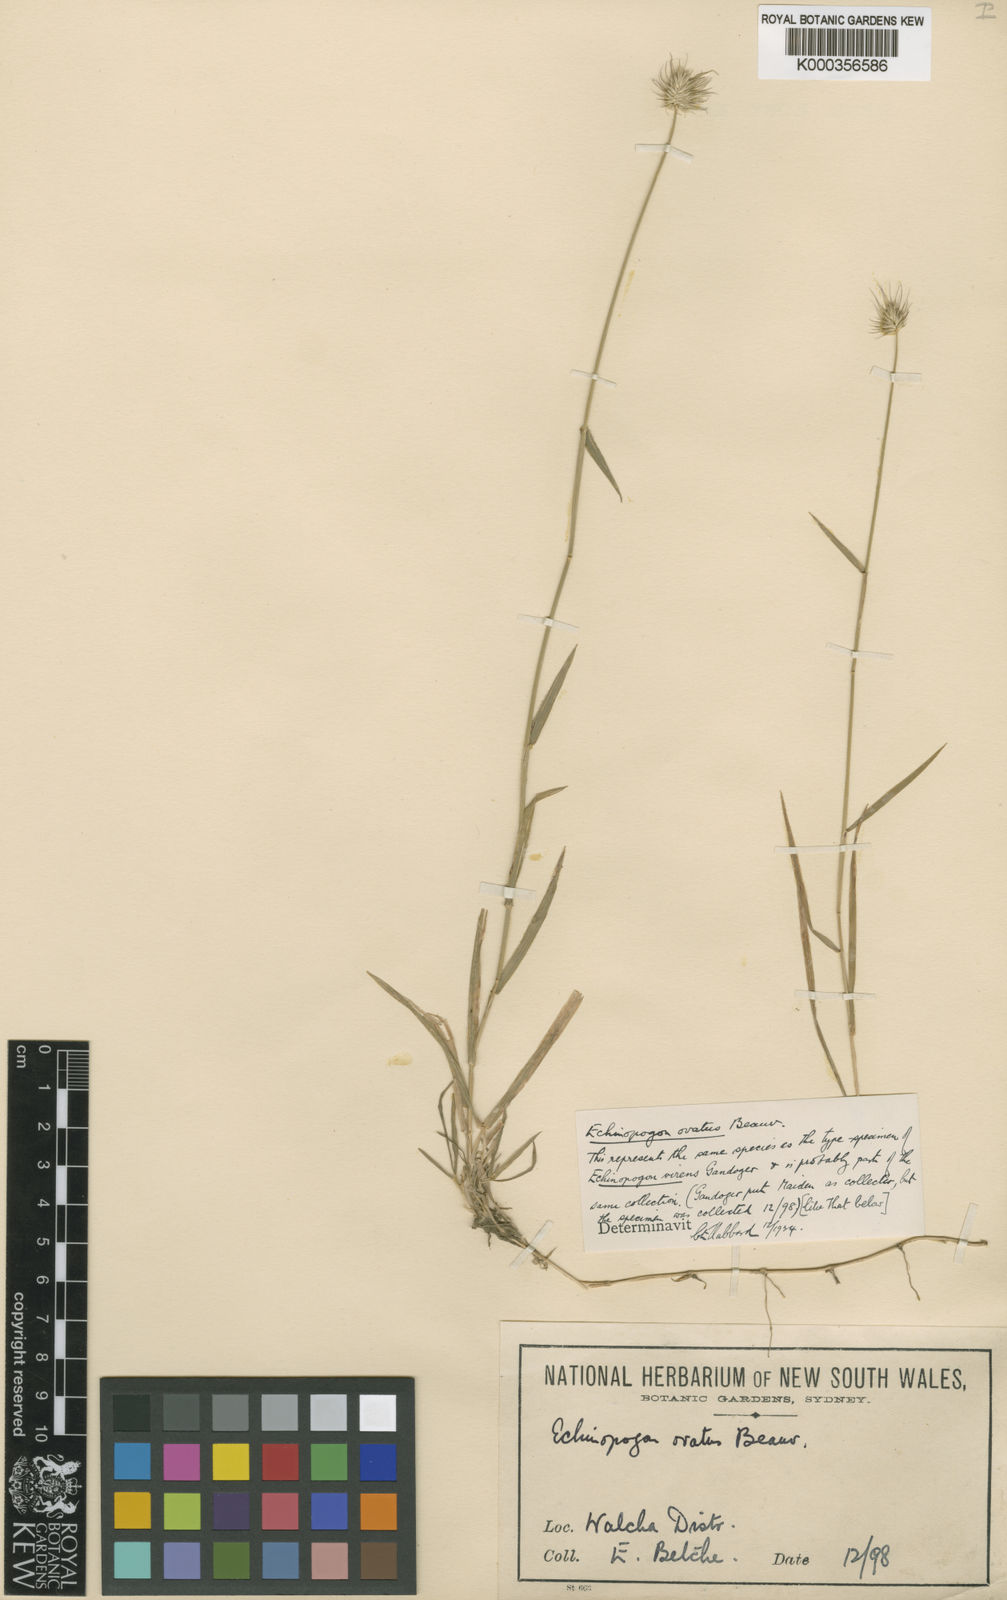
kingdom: Plantae
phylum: Tracheophyta
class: Liliopsida
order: Poales
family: Poaceae
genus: Echinopogon
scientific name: Echinopogon ovatus
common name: Hedgehog-grass
